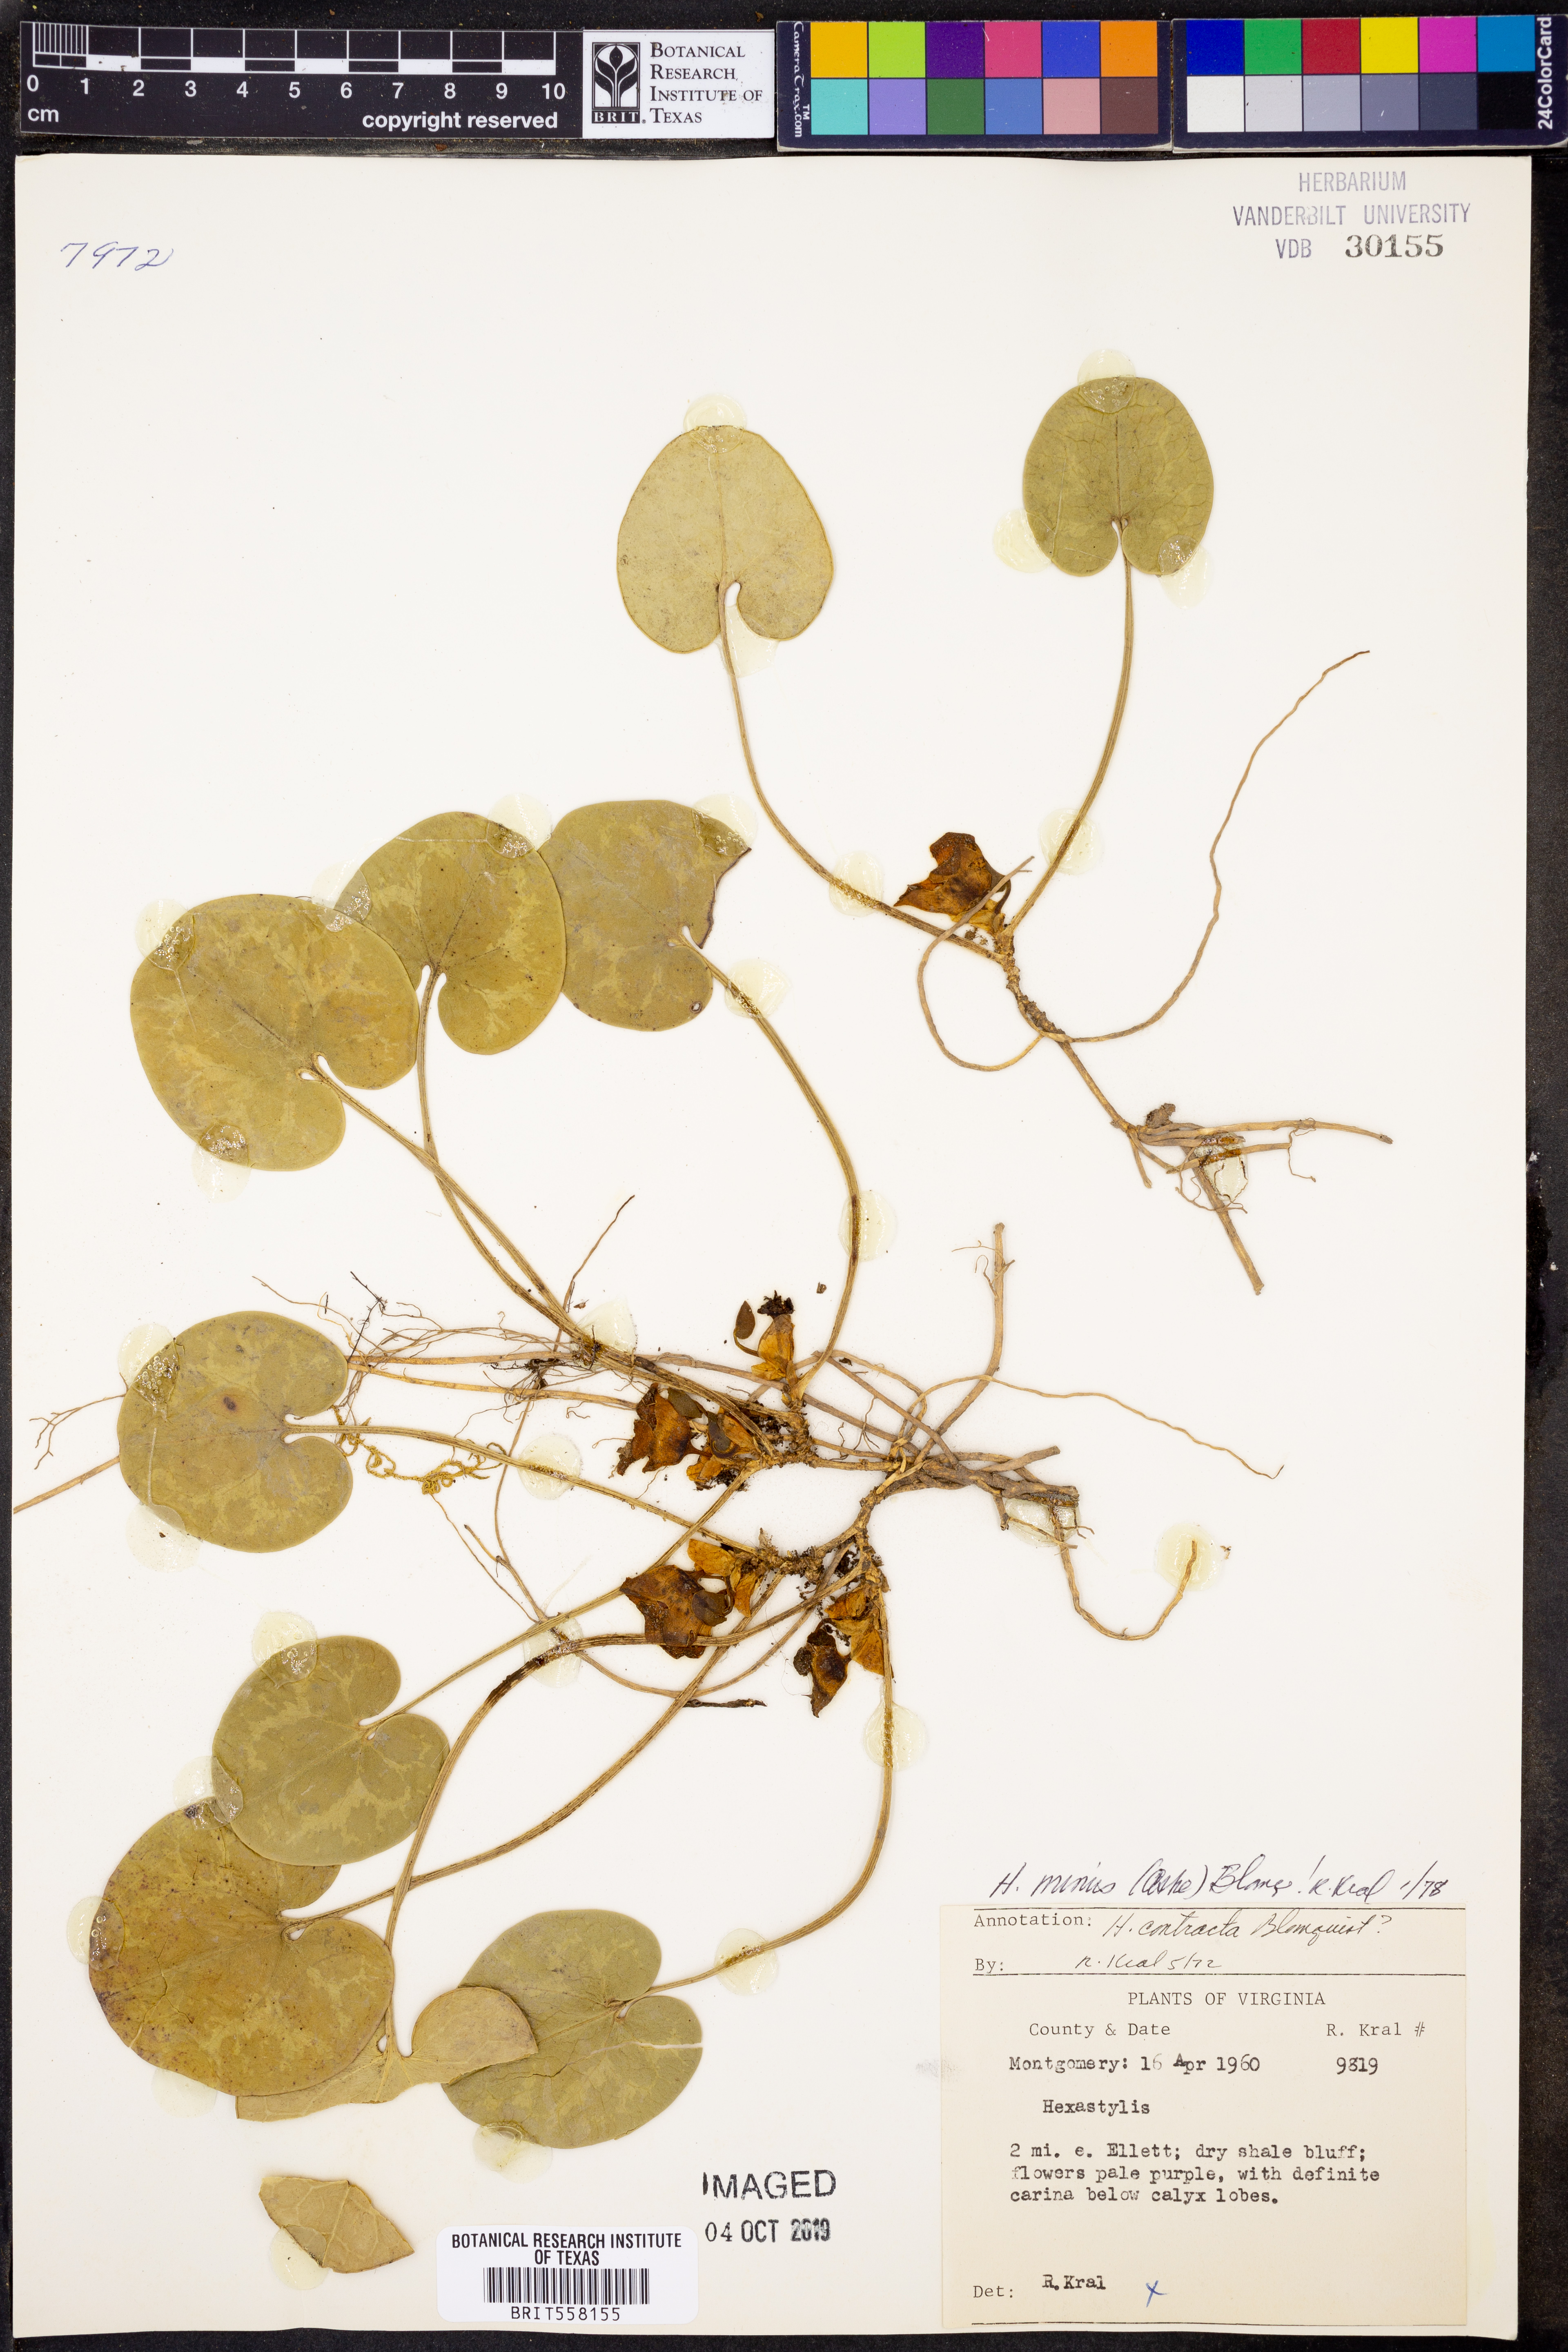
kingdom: Plantae
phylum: Tracheophyta
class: Magnoliopsida
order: Piperales
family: Aristolochiaceae
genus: Hexastylis
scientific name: Hexastylis minor
